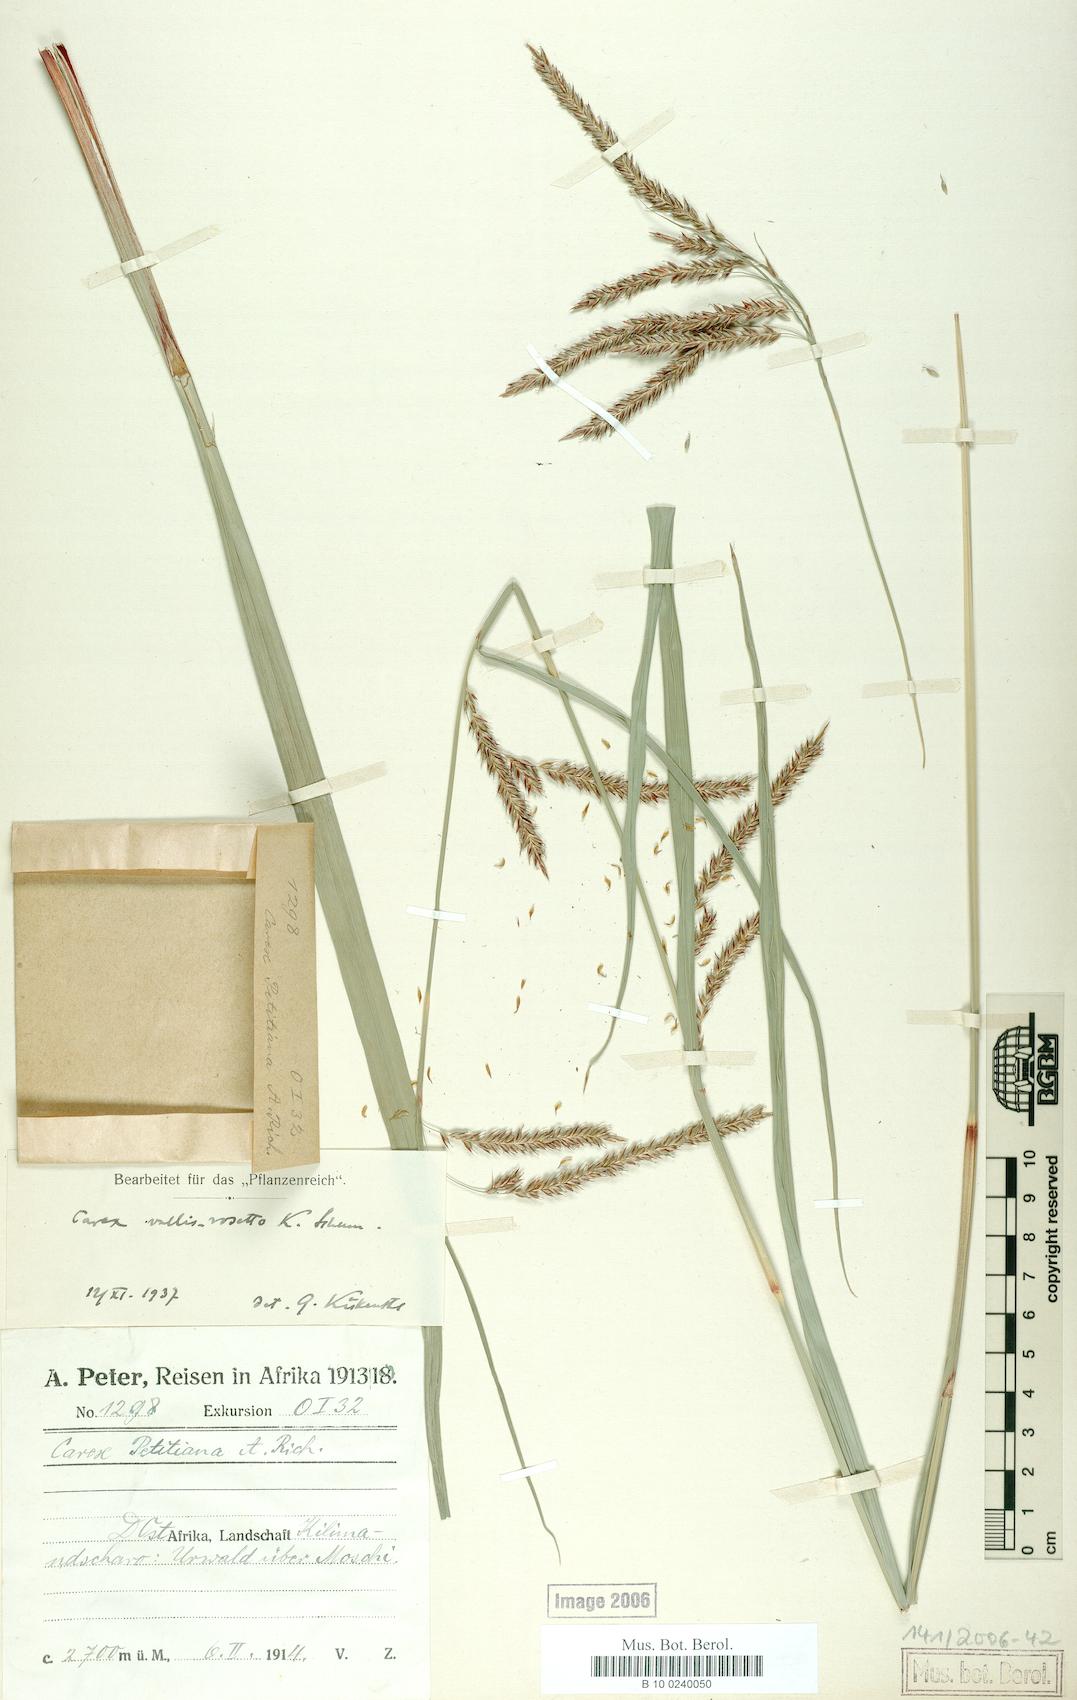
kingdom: Plantae
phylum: Tracheophyta
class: Liliopsida
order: Poales
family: Cyperaceae
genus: Carex
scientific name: Carex greenwayi
